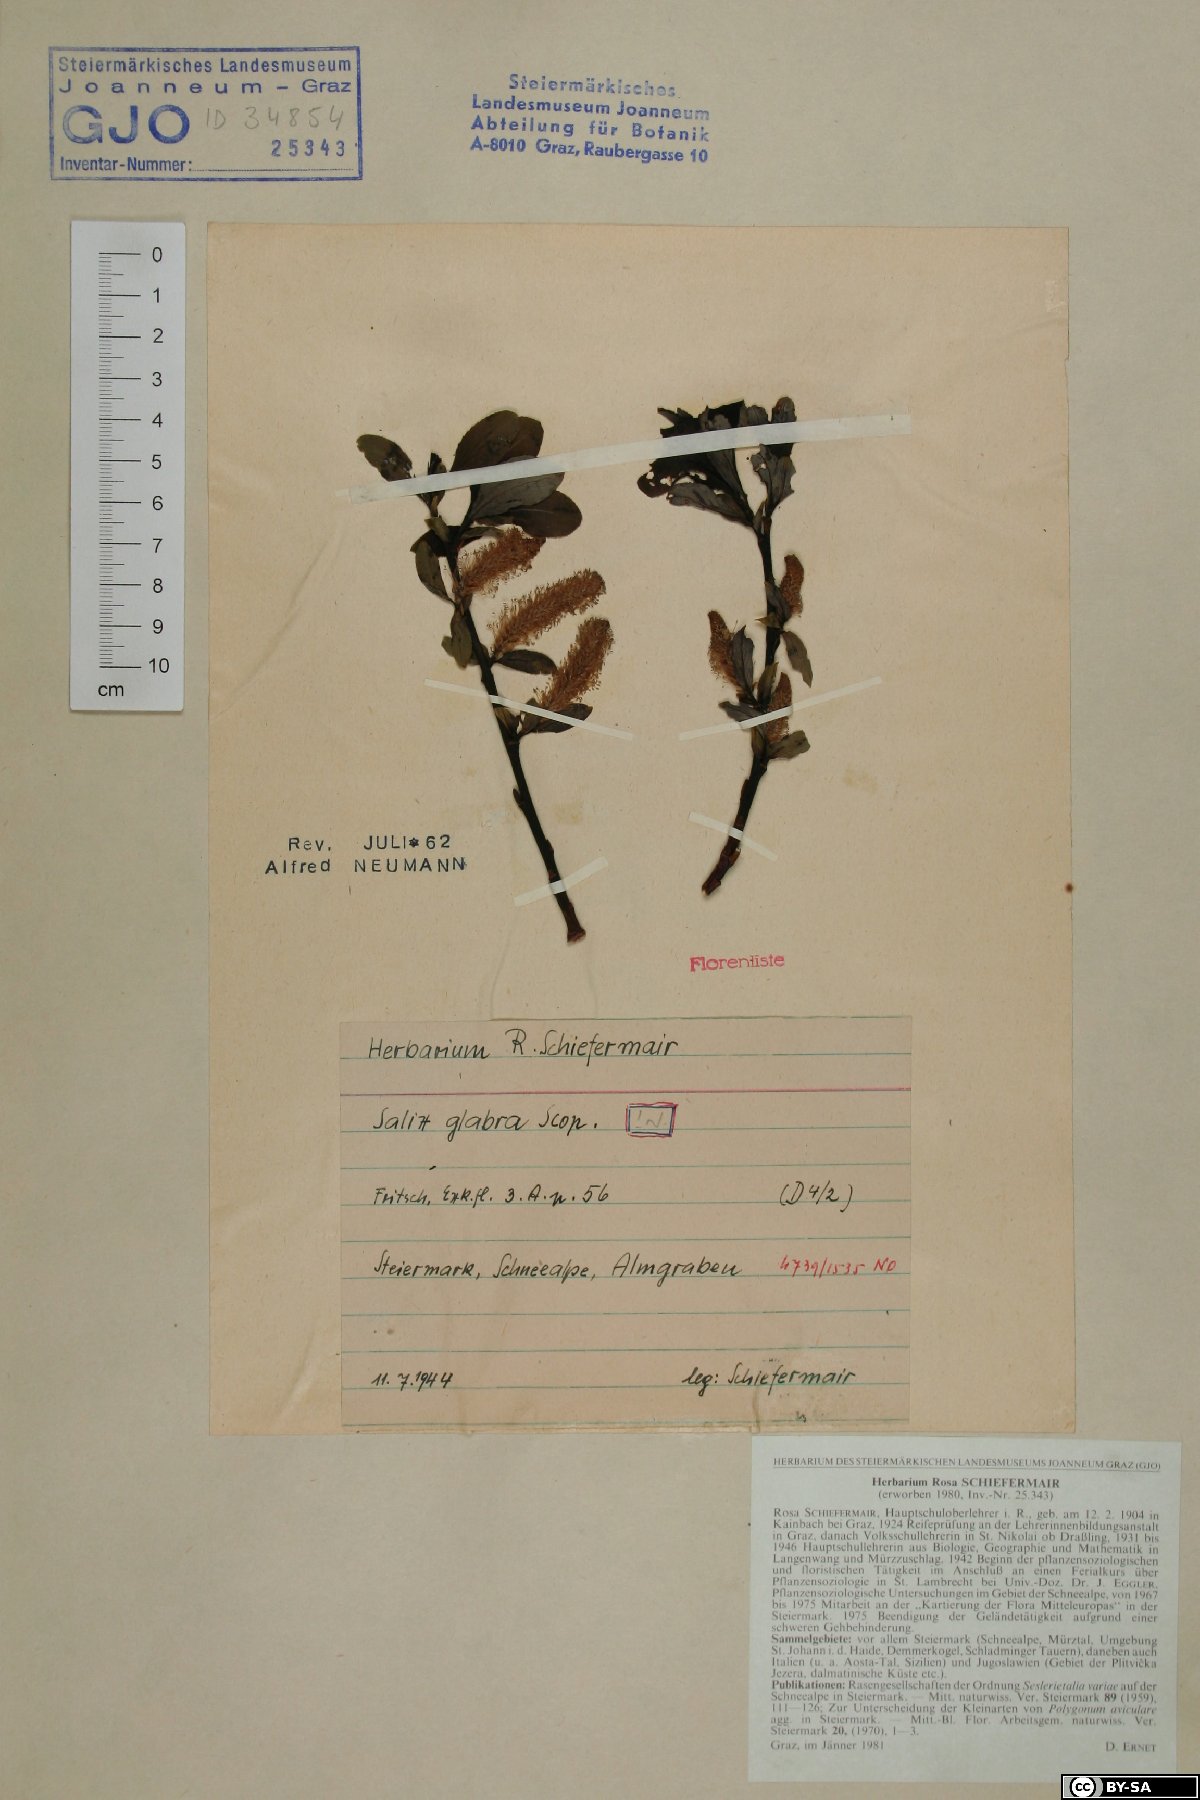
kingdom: Plantae
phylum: Tracheophyta
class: Magnoliopsida
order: Malpighiales
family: Salicaceae
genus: Salix
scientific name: Salix glabra
